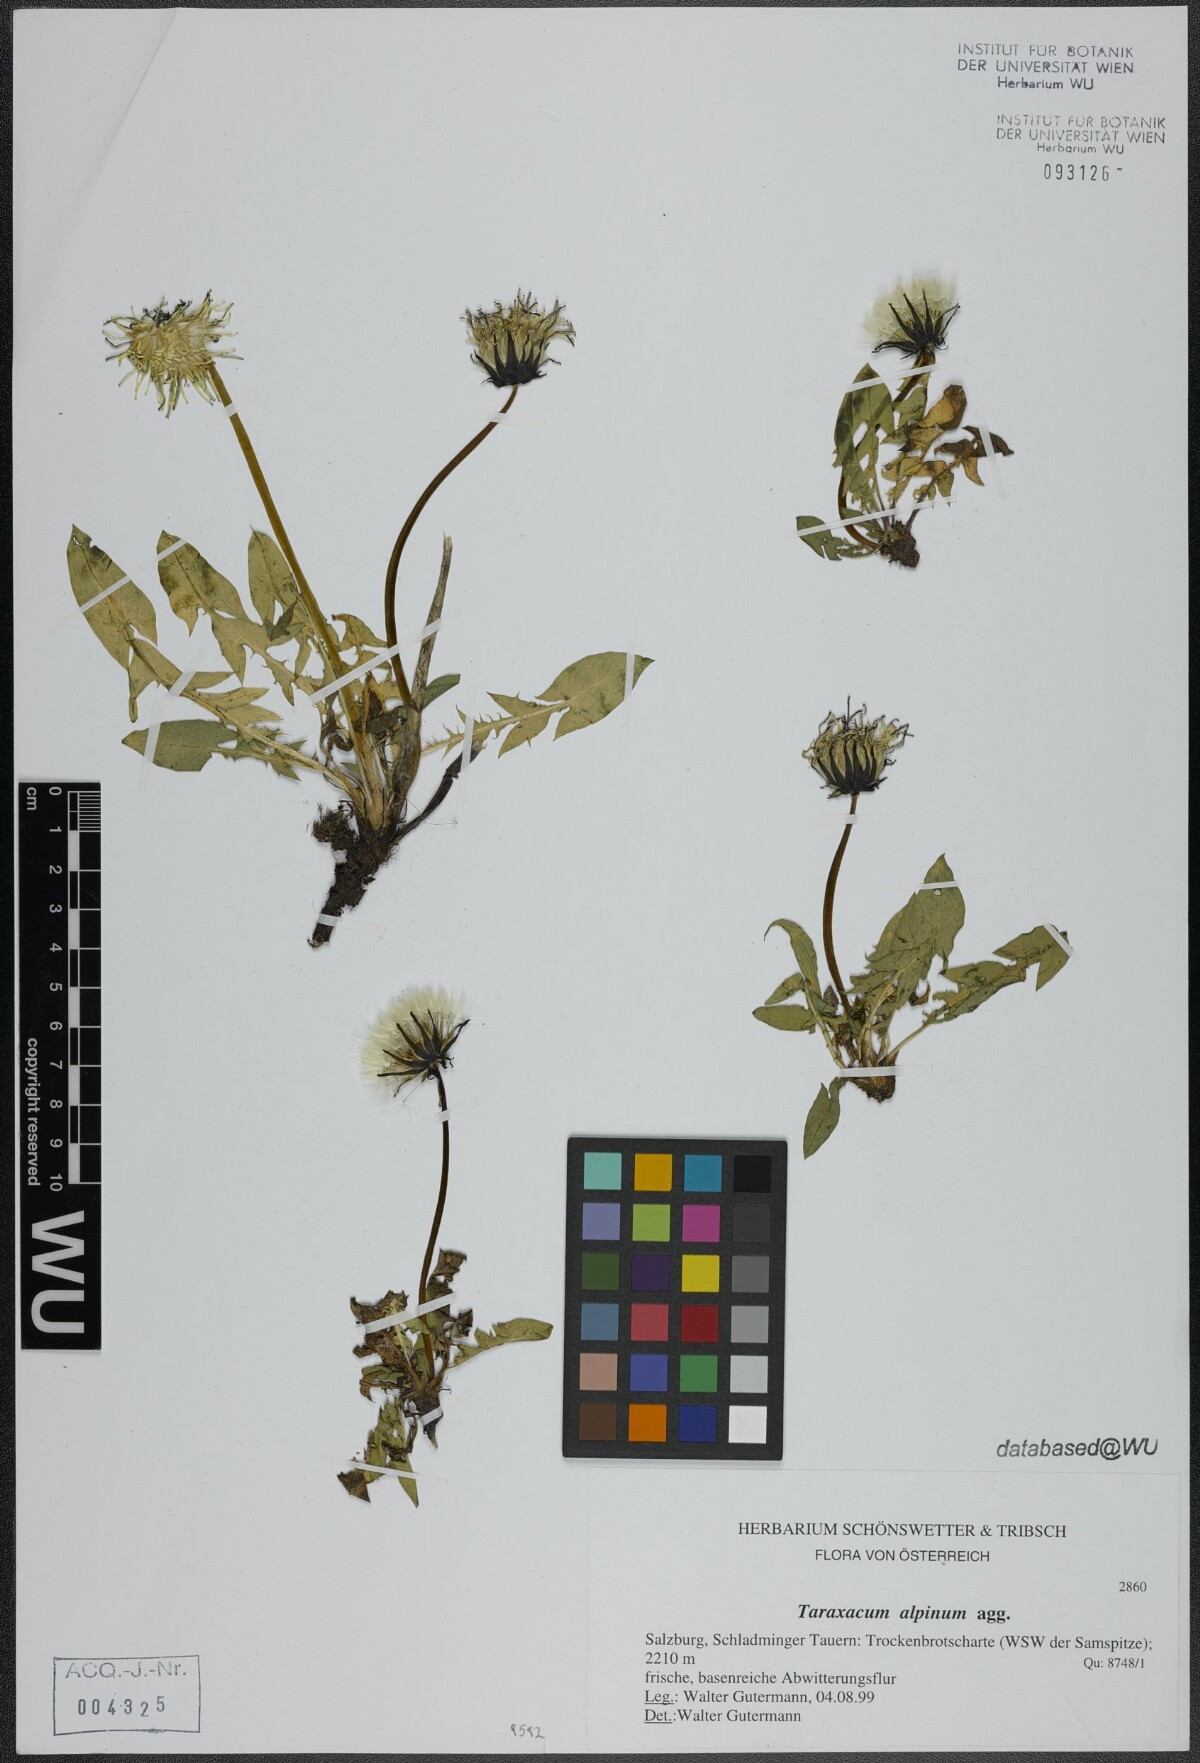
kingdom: Plantae
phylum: Tracheophyta
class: Magnoliopsida
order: Asterales
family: Asteraceae
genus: Taraxacum
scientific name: Taraxacum alpinum
